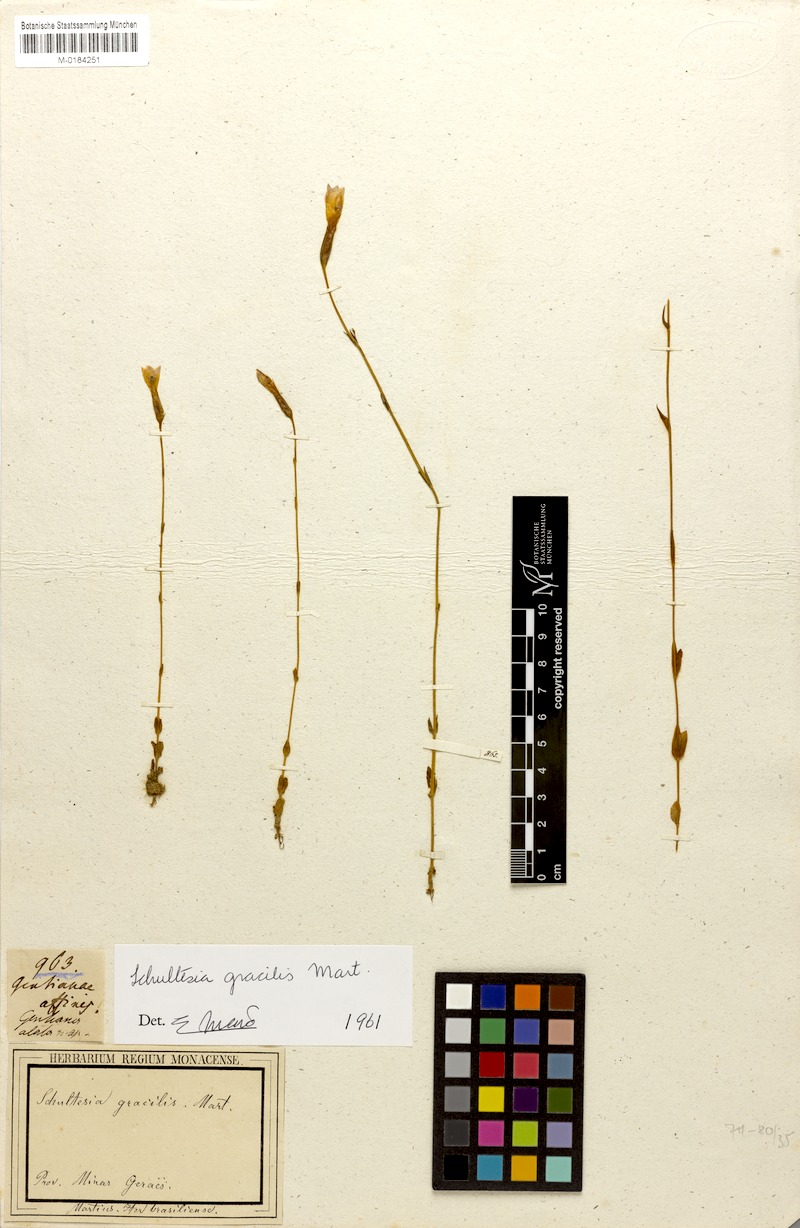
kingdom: Plantae
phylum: Tracheophyta
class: Magnoliopsida
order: Gentianales
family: Gentianaceae
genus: Schultesia
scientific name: Schultesia gracilis
